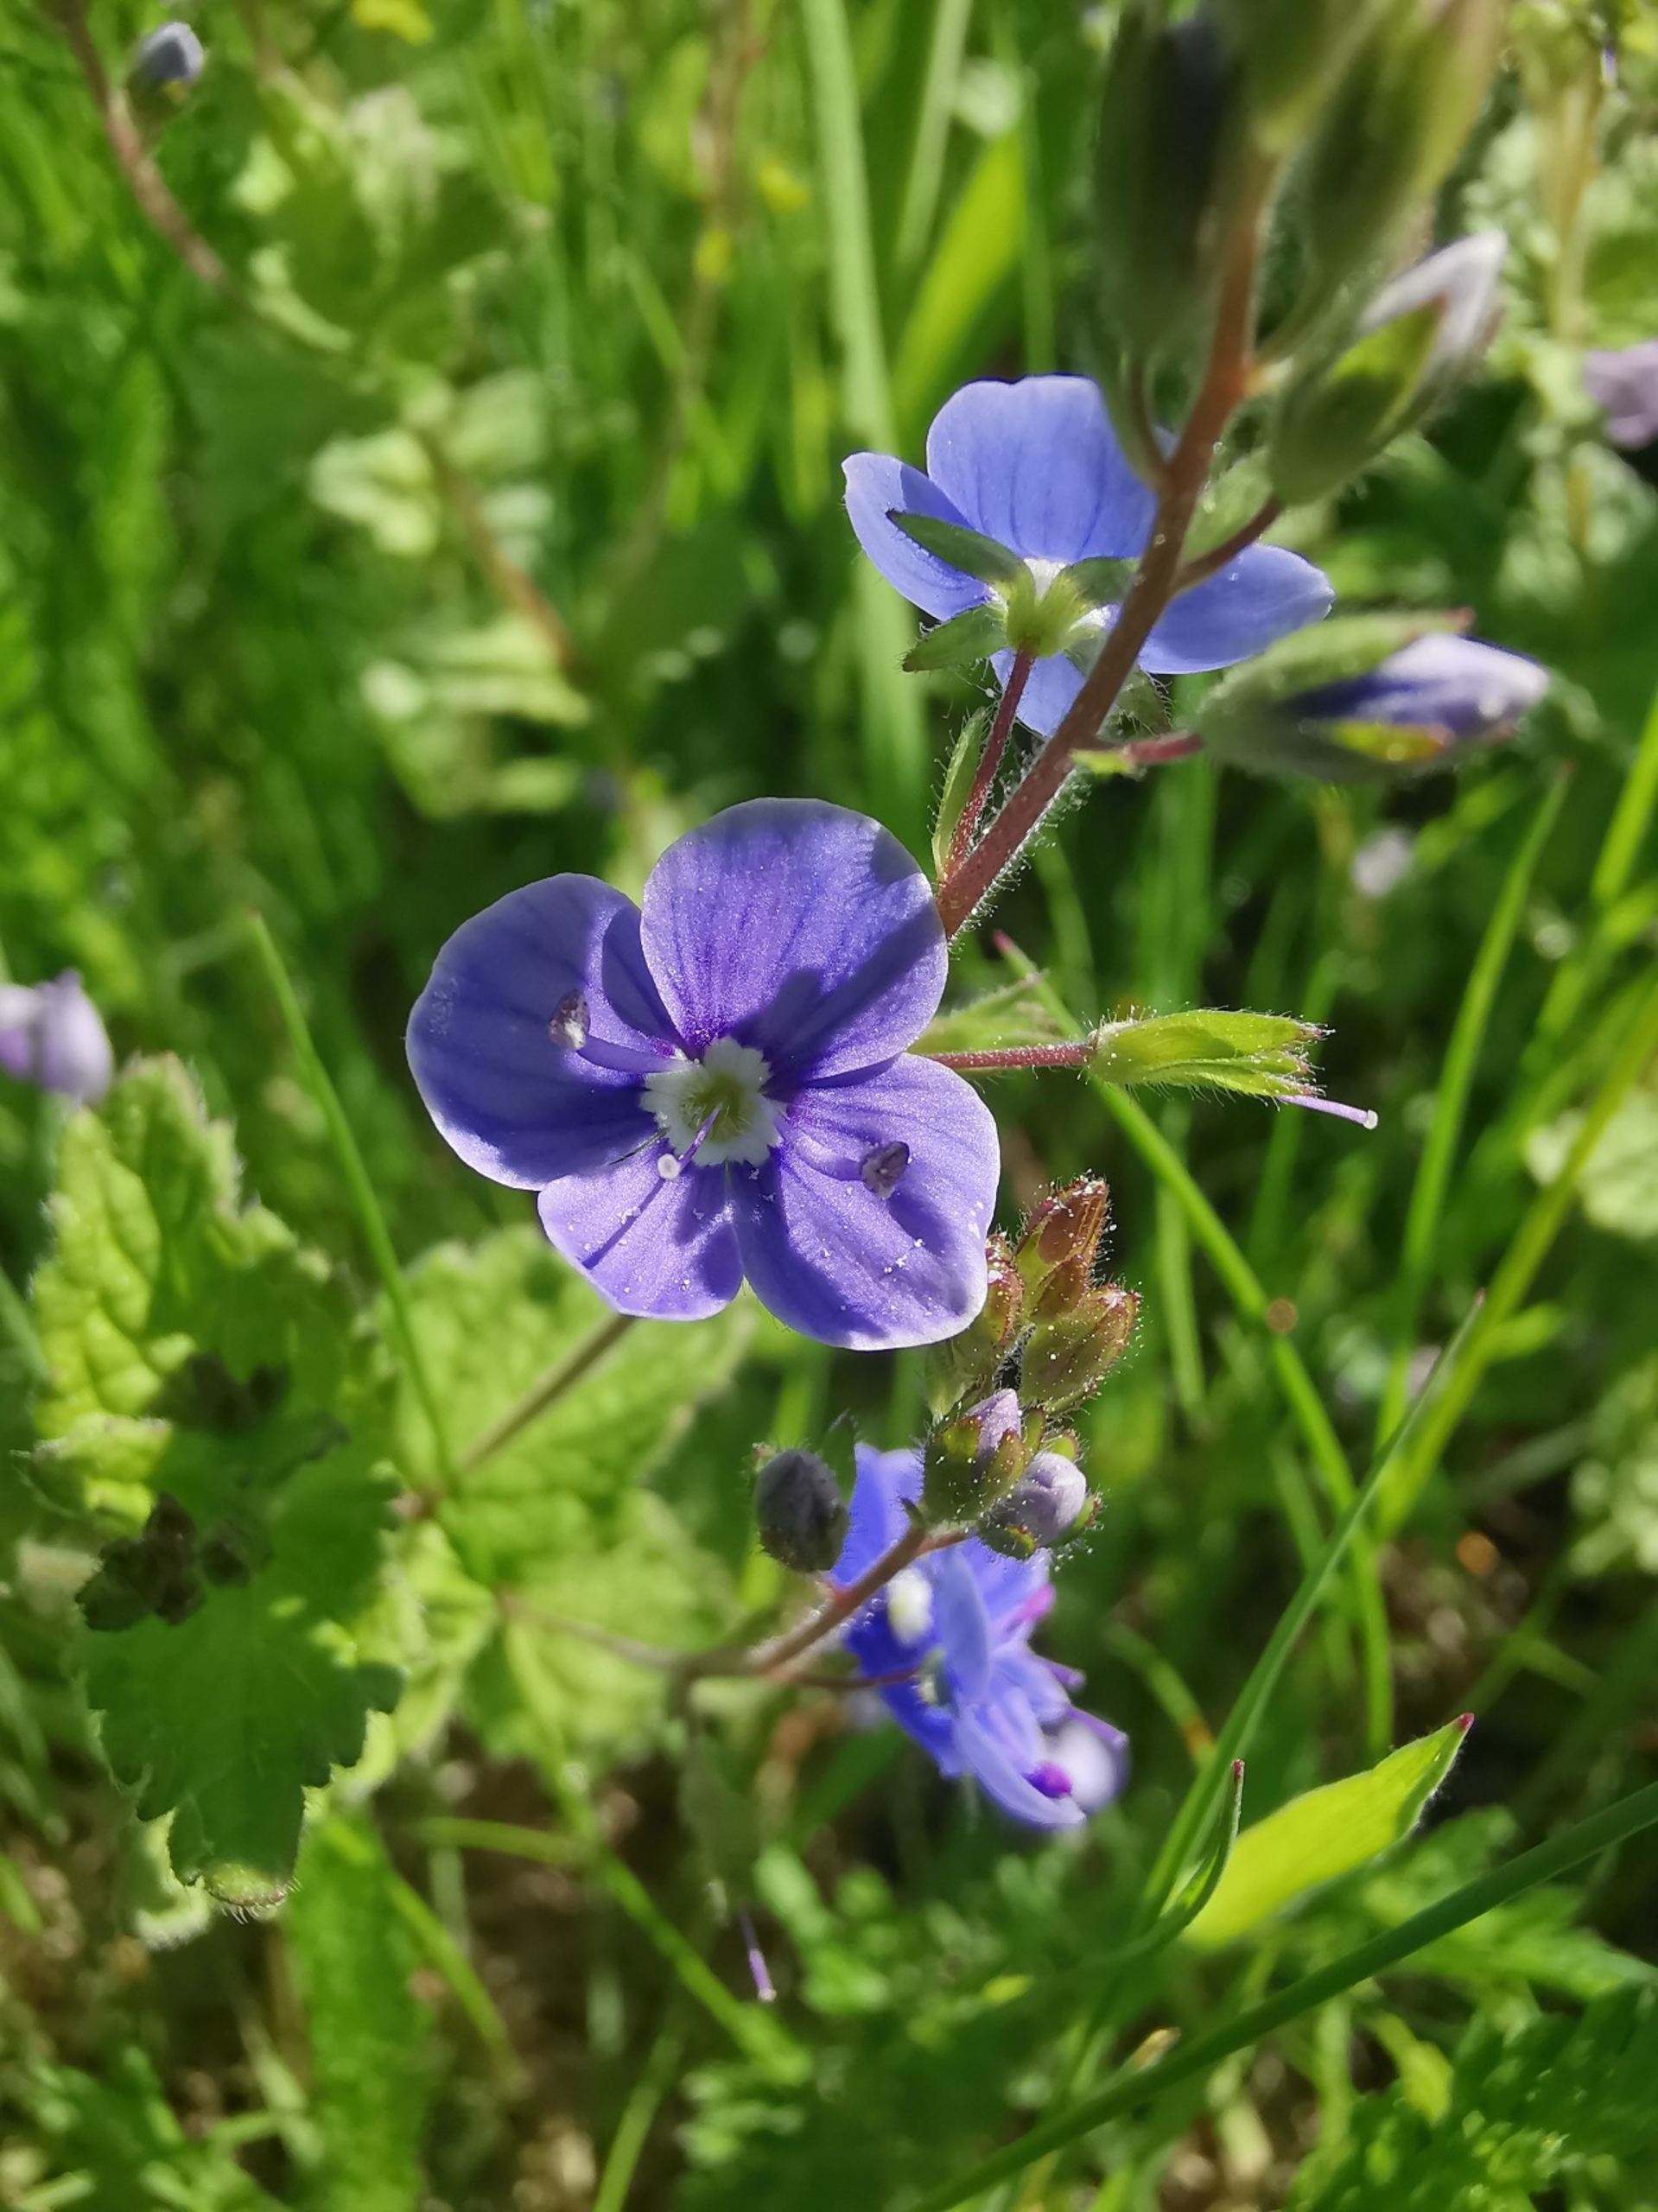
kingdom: Plantae
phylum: Tracheophyta
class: Magnoliopsida
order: Lamiales
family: Plantaginaceae
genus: Veronica
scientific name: Veronica chamaedrys
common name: Tveskægget ærenpris
